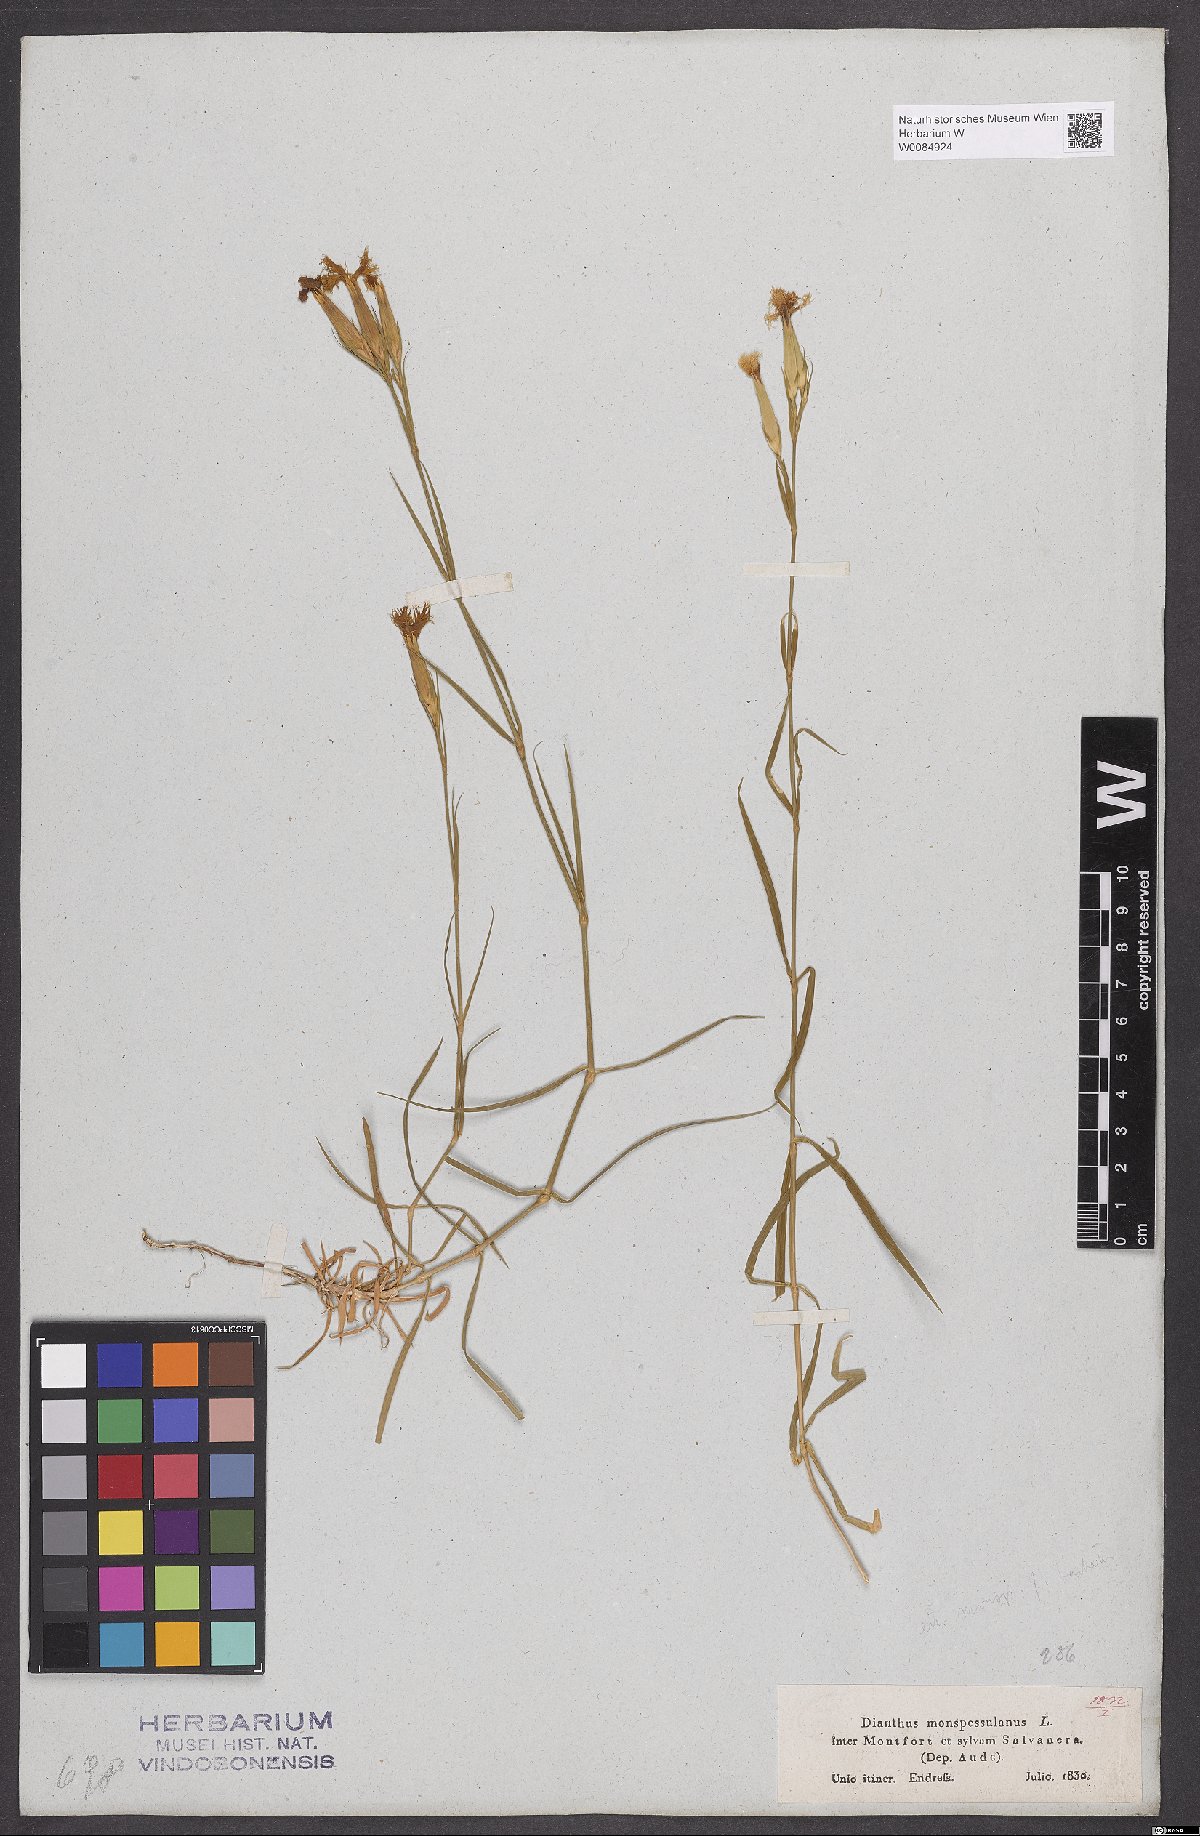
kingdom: Plantae
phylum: Tracheophyta
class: Magnoliopsida
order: Caryophyllales
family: Caryophyllaceae
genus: Dianthus
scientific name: Dianthus hyssopifolius
